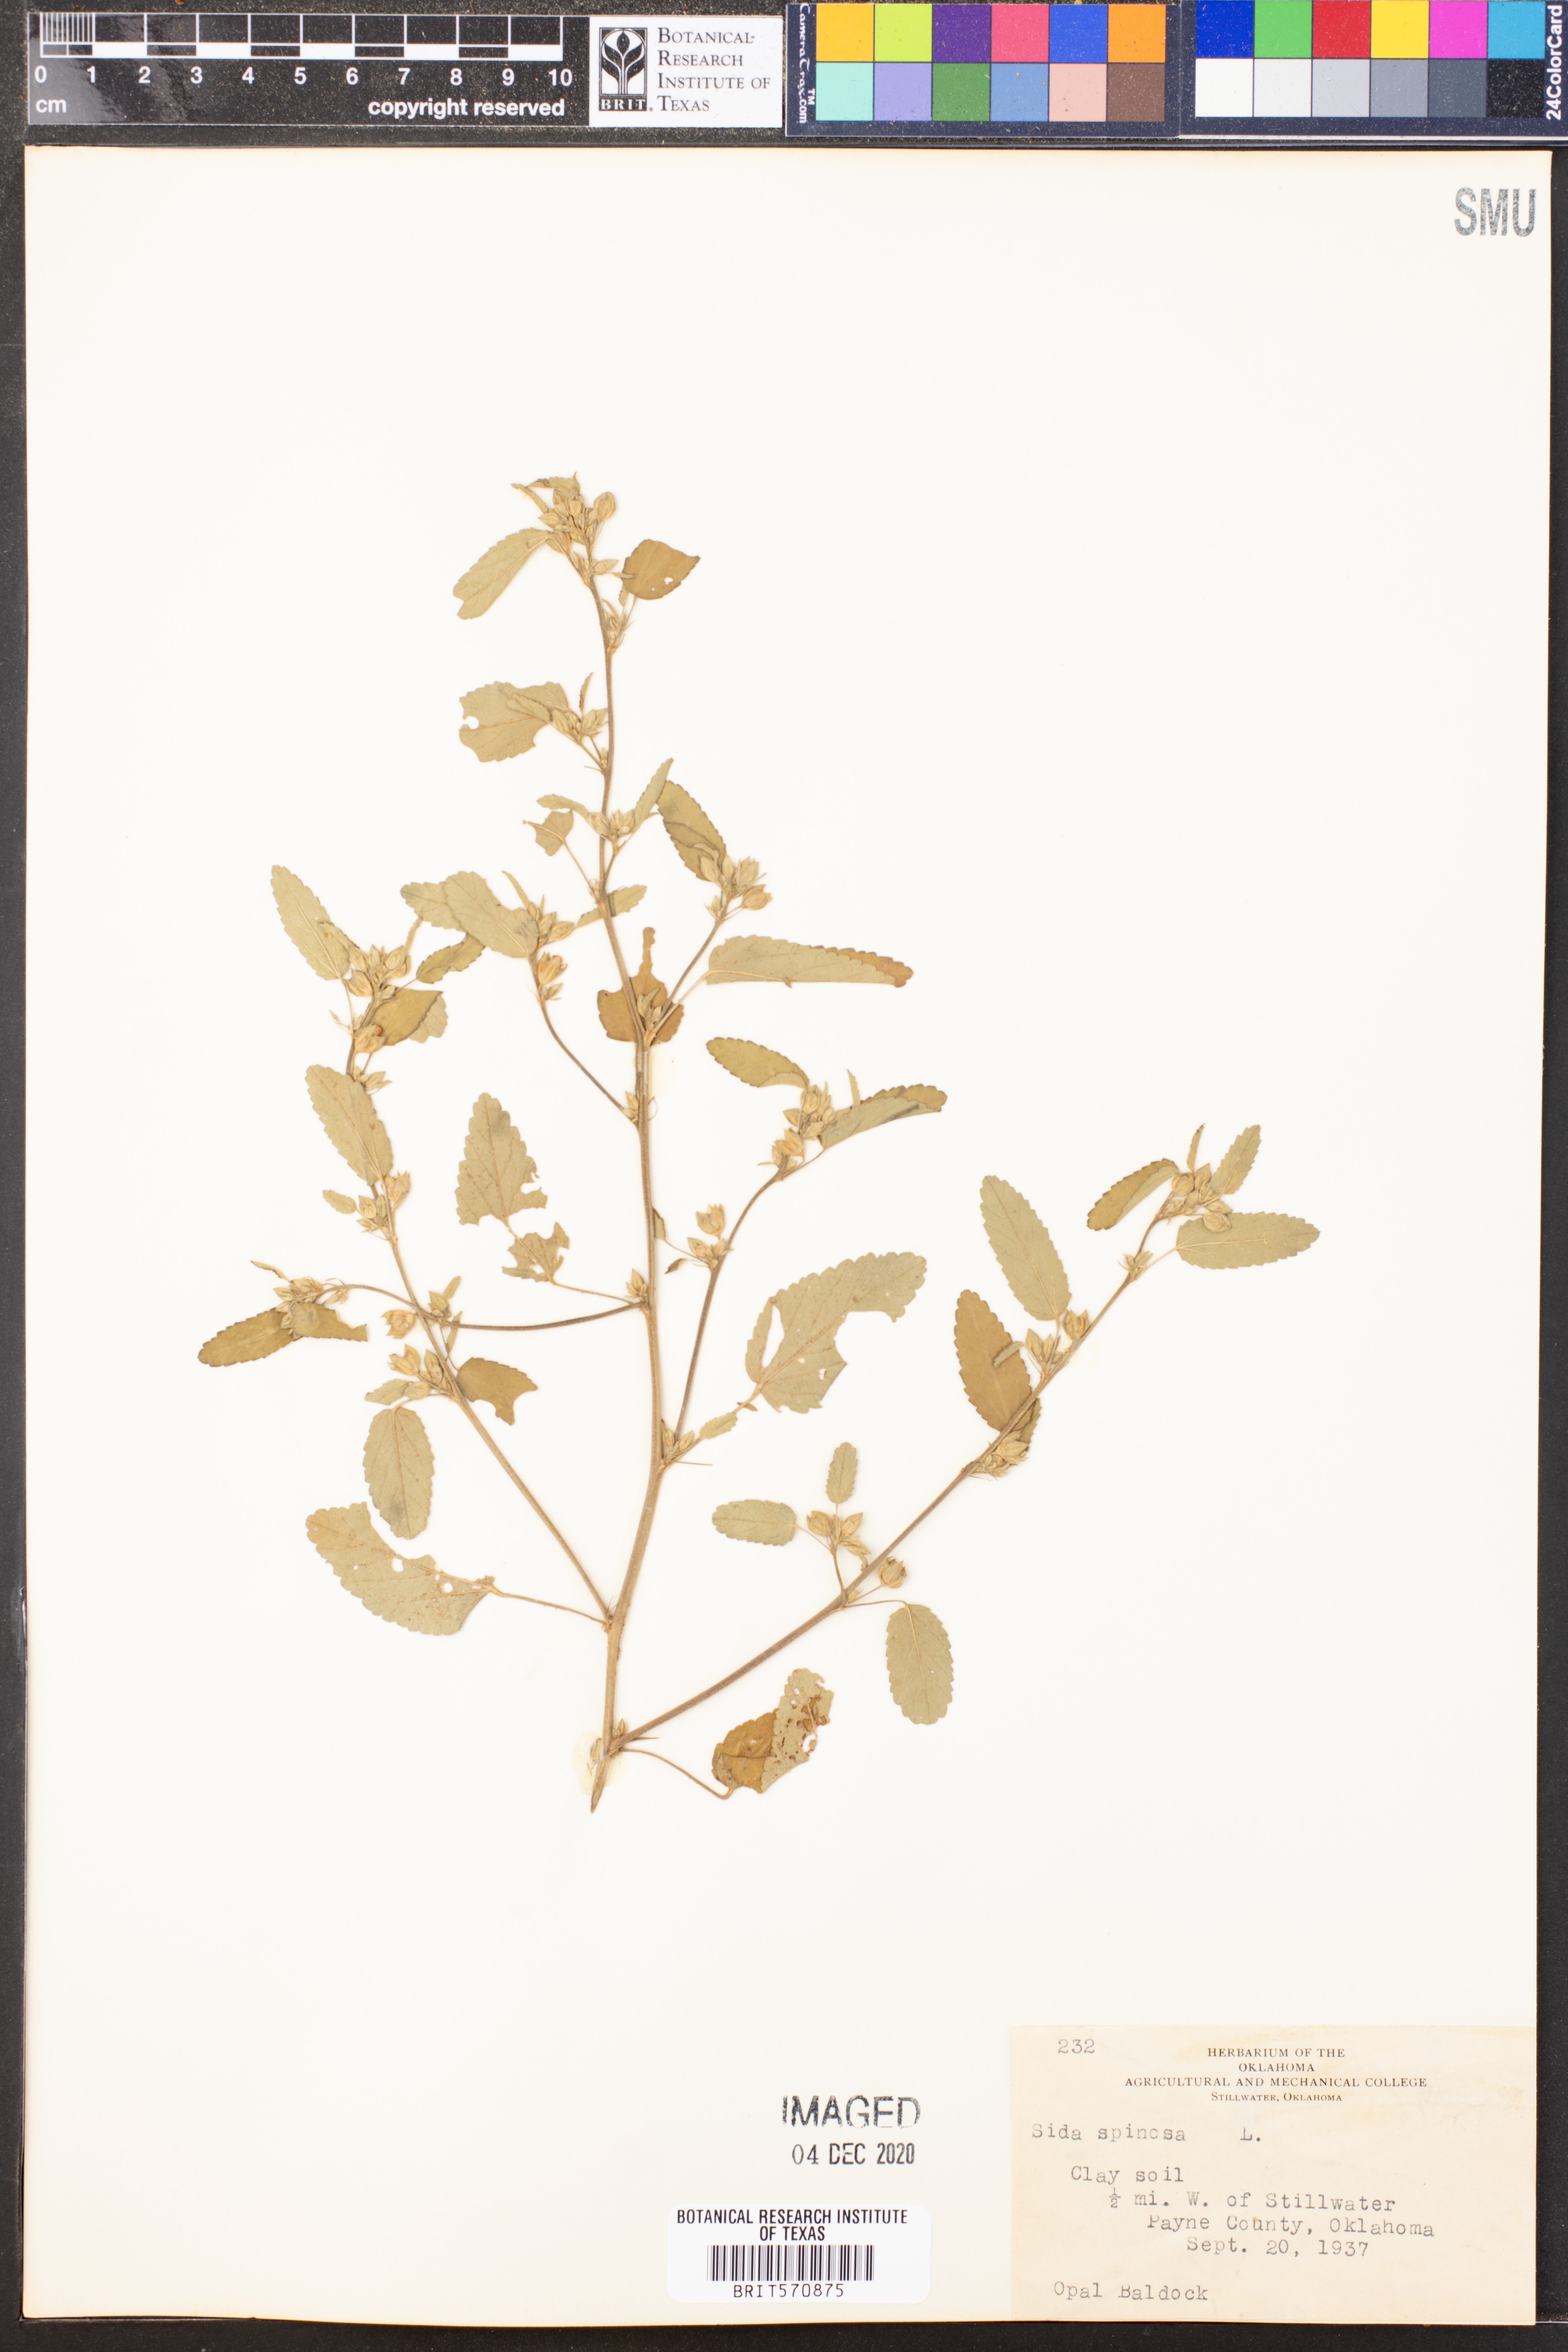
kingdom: Plantae
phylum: Tracheophyta
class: Magnoliopsida
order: Malvales
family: Malvaceae
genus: Sida
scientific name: Sida spinosa
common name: Prickly fanpetals
